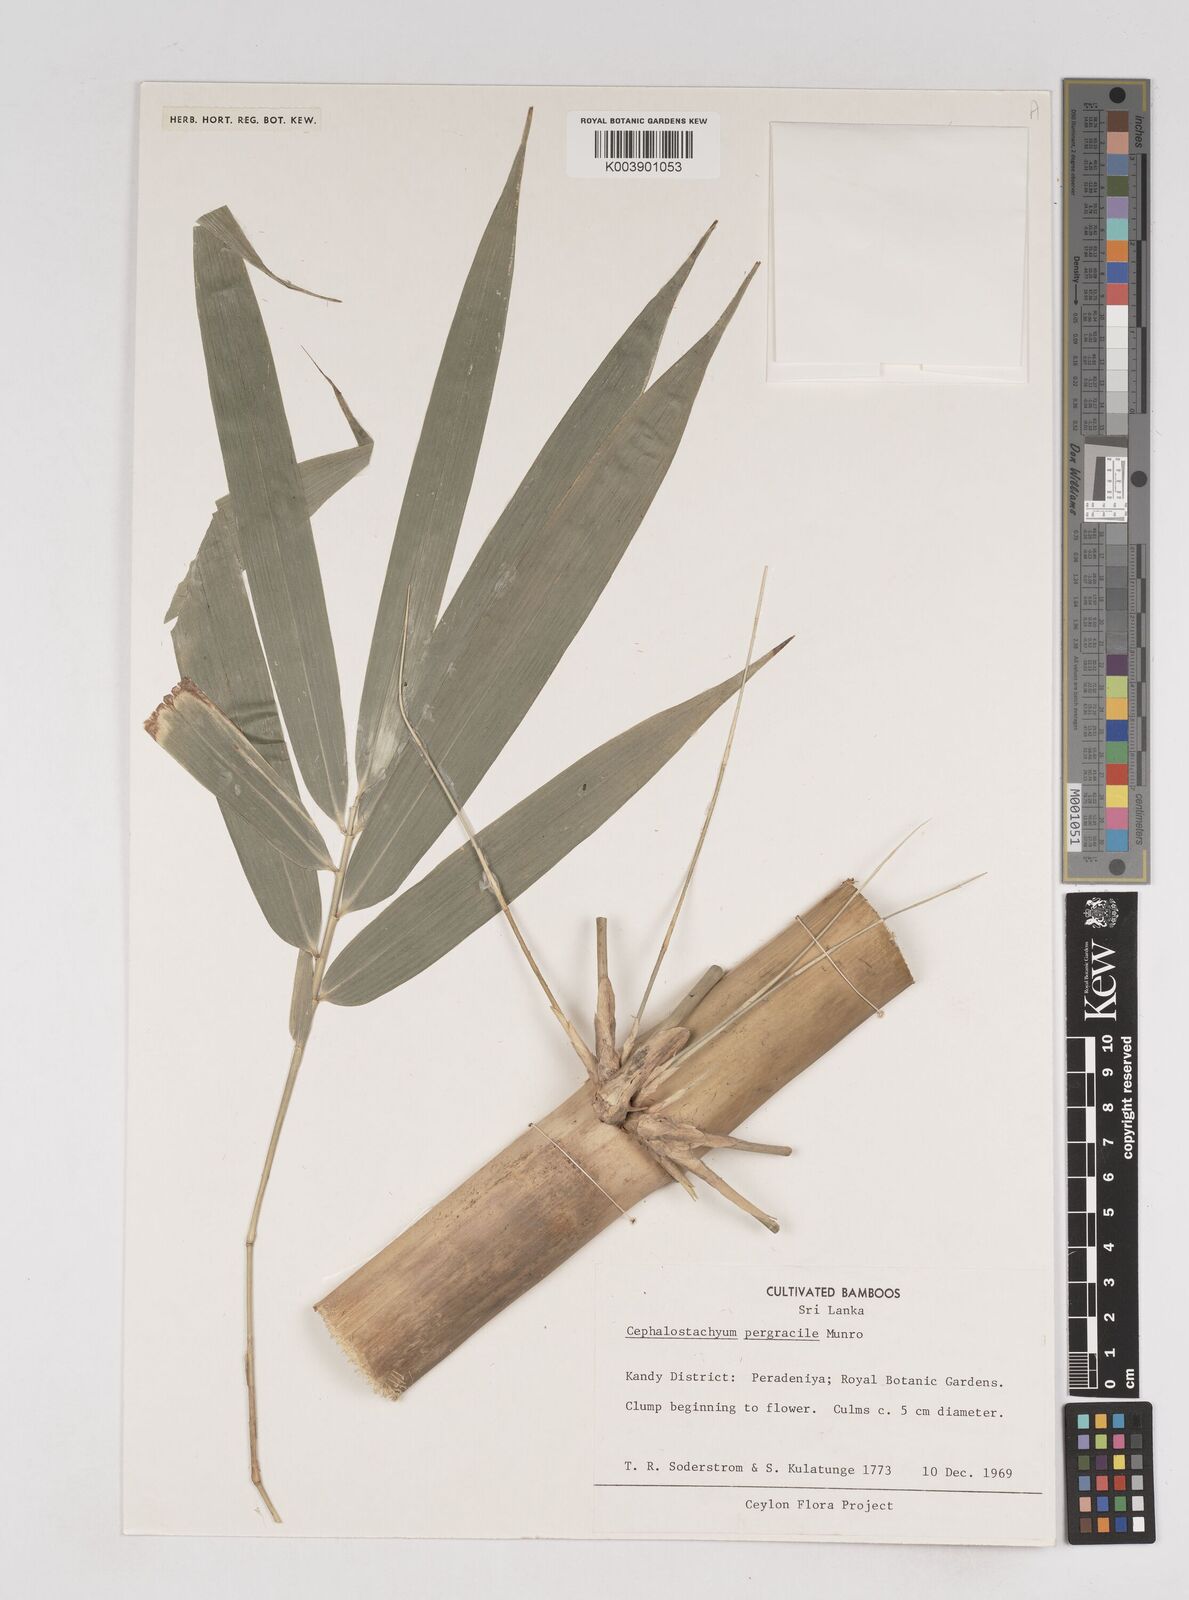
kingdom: Plantae
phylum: Tracheophyta
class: Liliopsida
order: Poales
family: Poaceae
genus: Cephalostachyum
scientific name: Cephalostachyum
